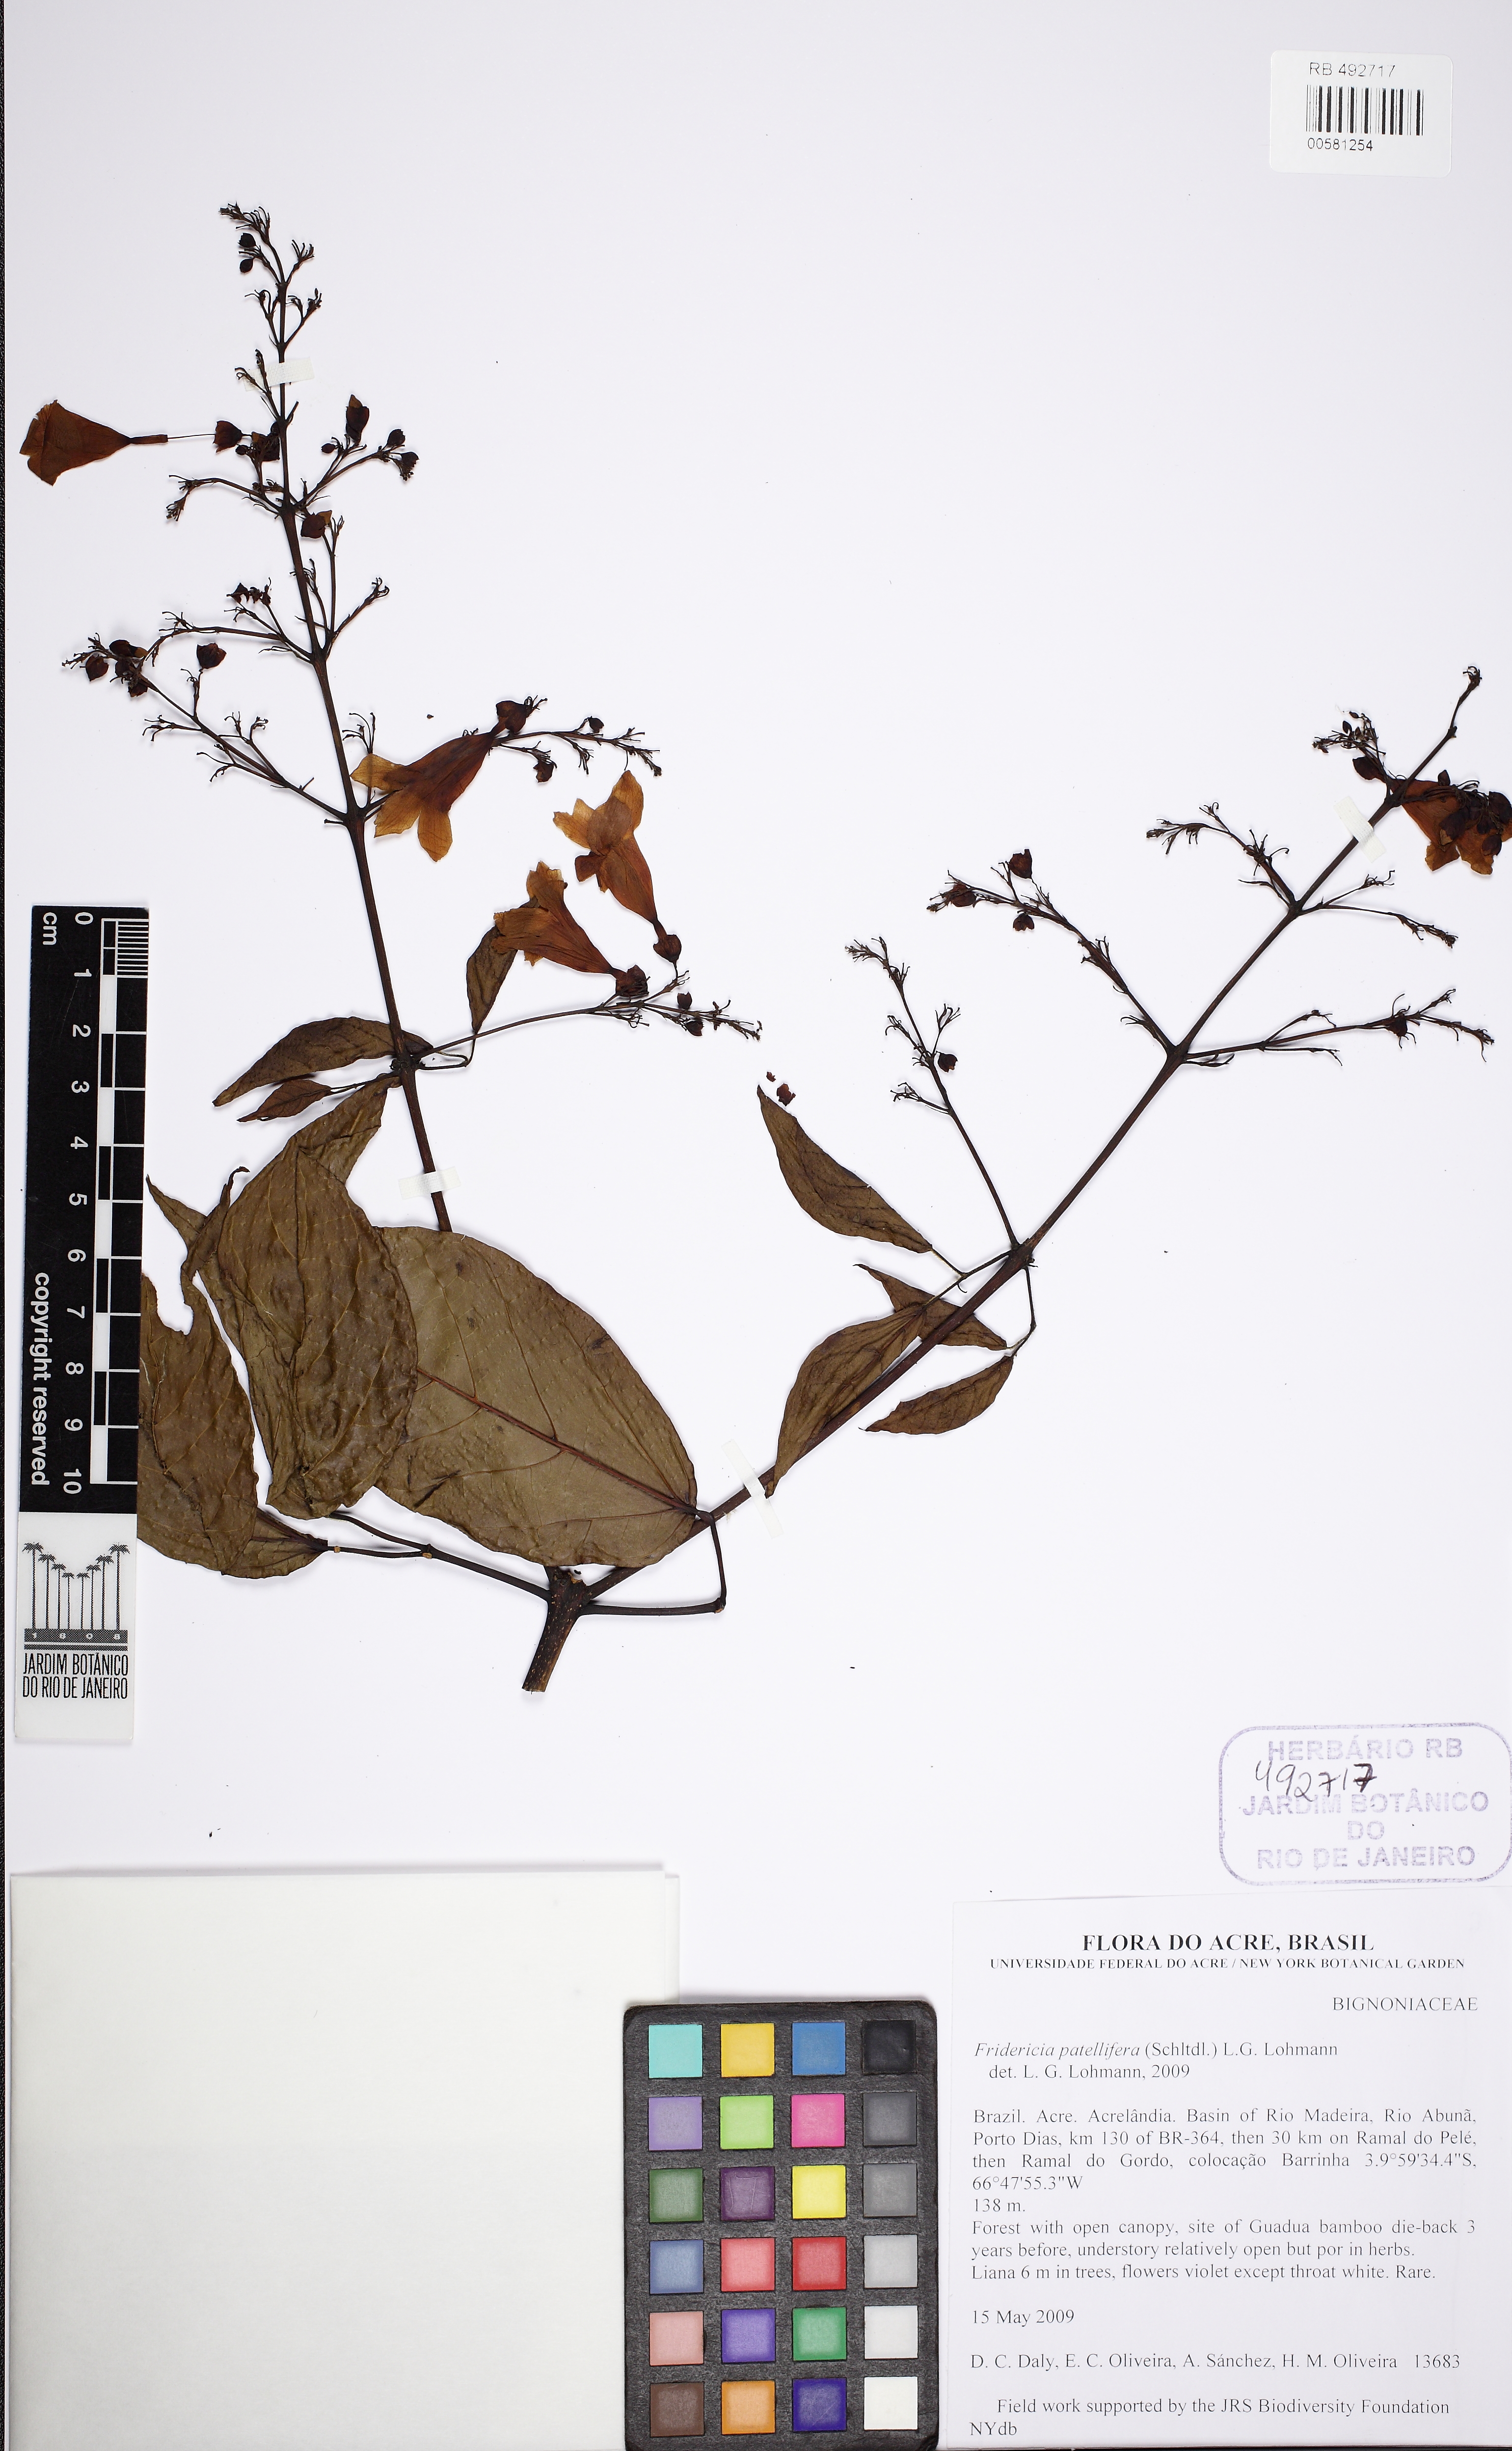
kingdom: Plantae
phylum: Tracheophyta
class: Magnoliopsida
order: Lamiales
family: Bignoniaceae
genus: Fridericia
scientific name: Fridericia patellifera
